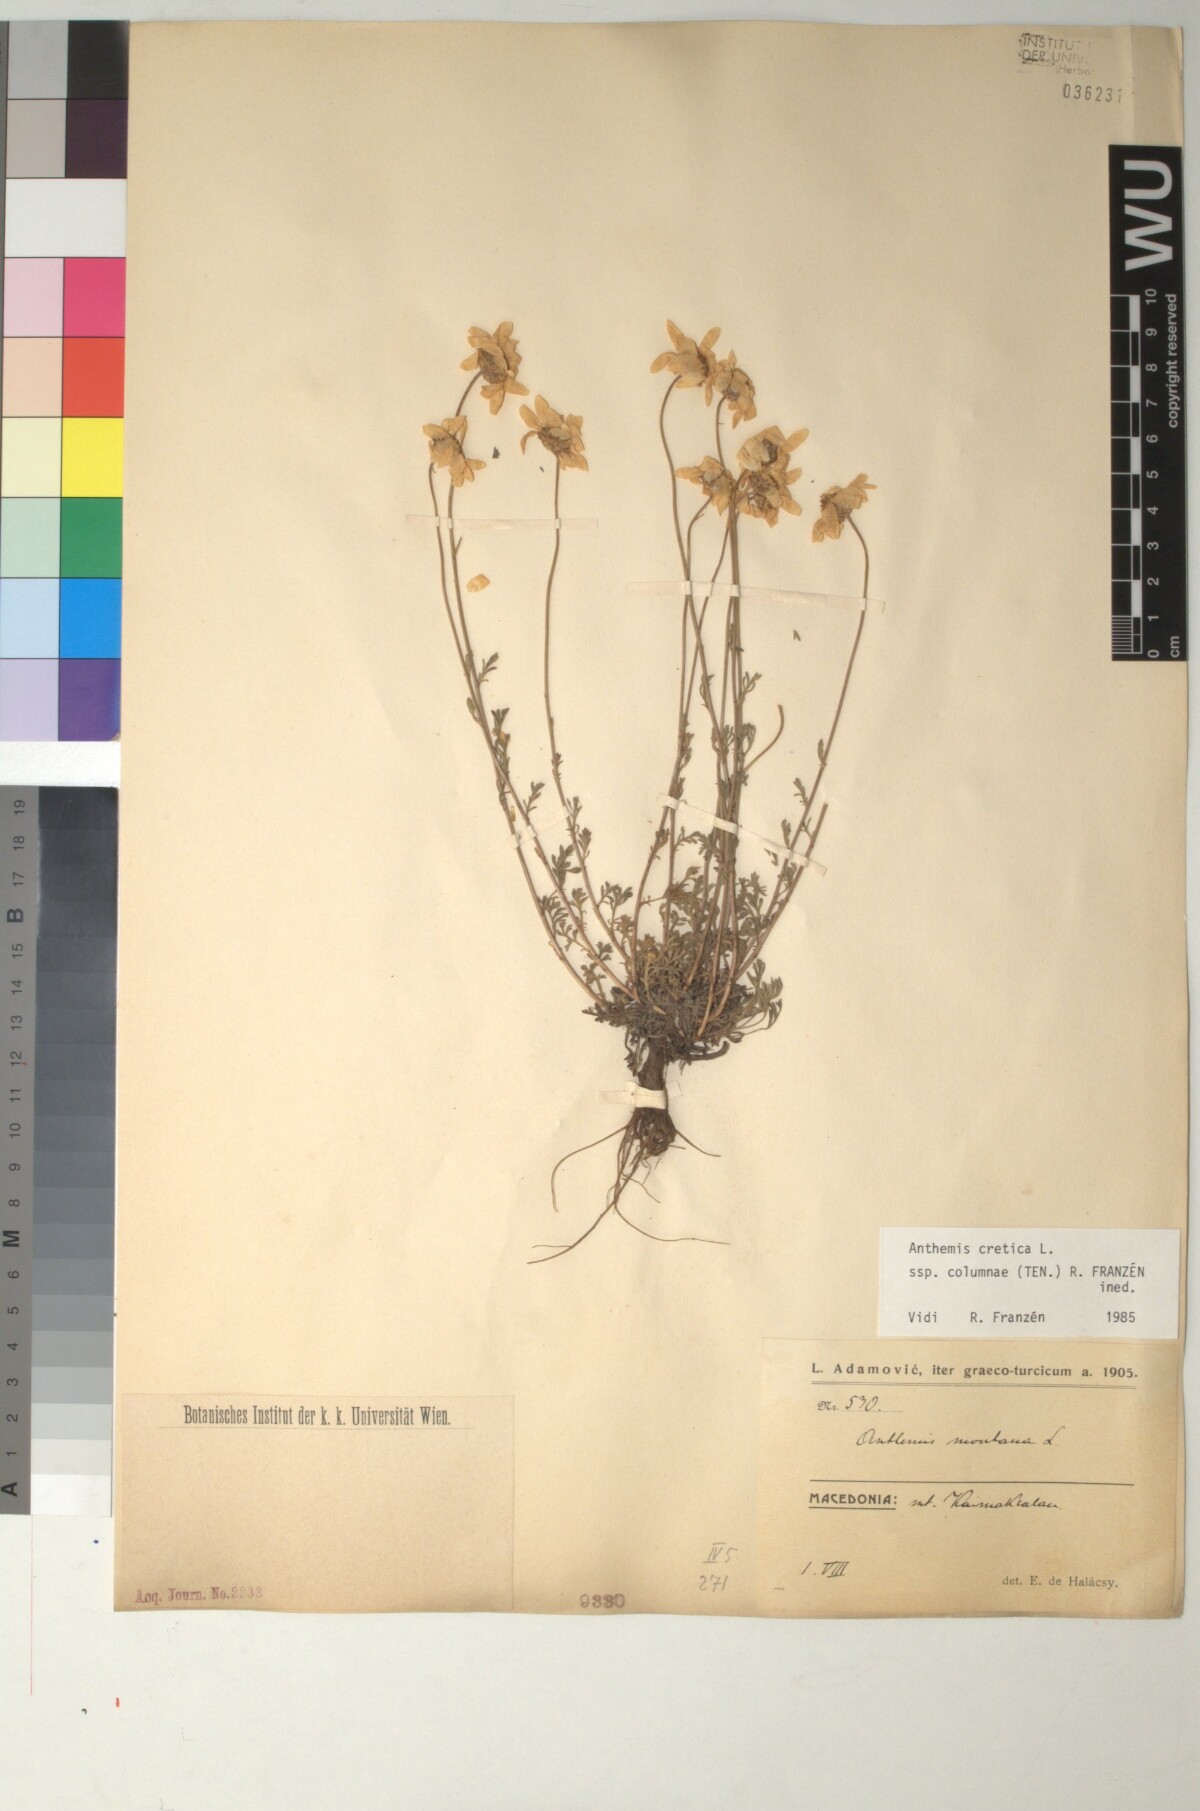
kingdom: Plantae
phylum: Tracheophyta
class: Magnoliopsida
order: Asterales
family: Asteraceae
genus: Anthemis
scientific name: Anthemis cretica
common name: Mountain dog-daisy
